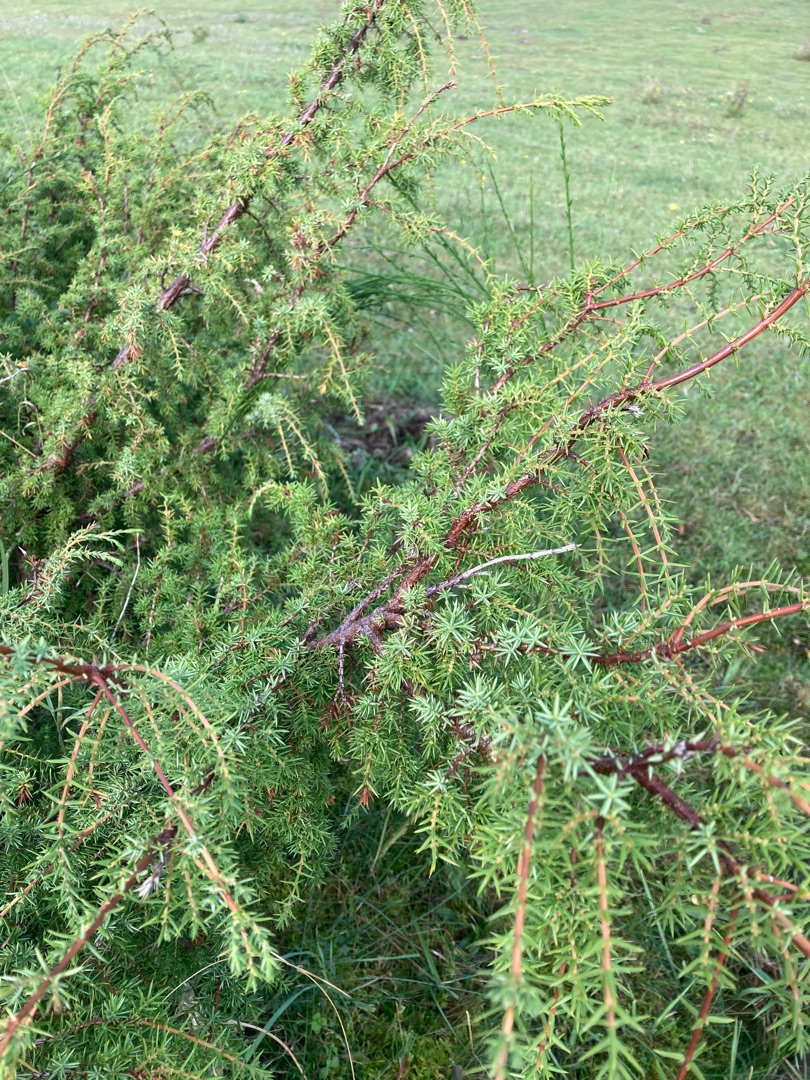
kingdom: Plantae
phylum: Tracheophyta
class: Pinopsida
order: Pinales
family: Cupressaceae
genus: Juniperus
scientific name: Juniperus communis
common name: Almindelig ene
